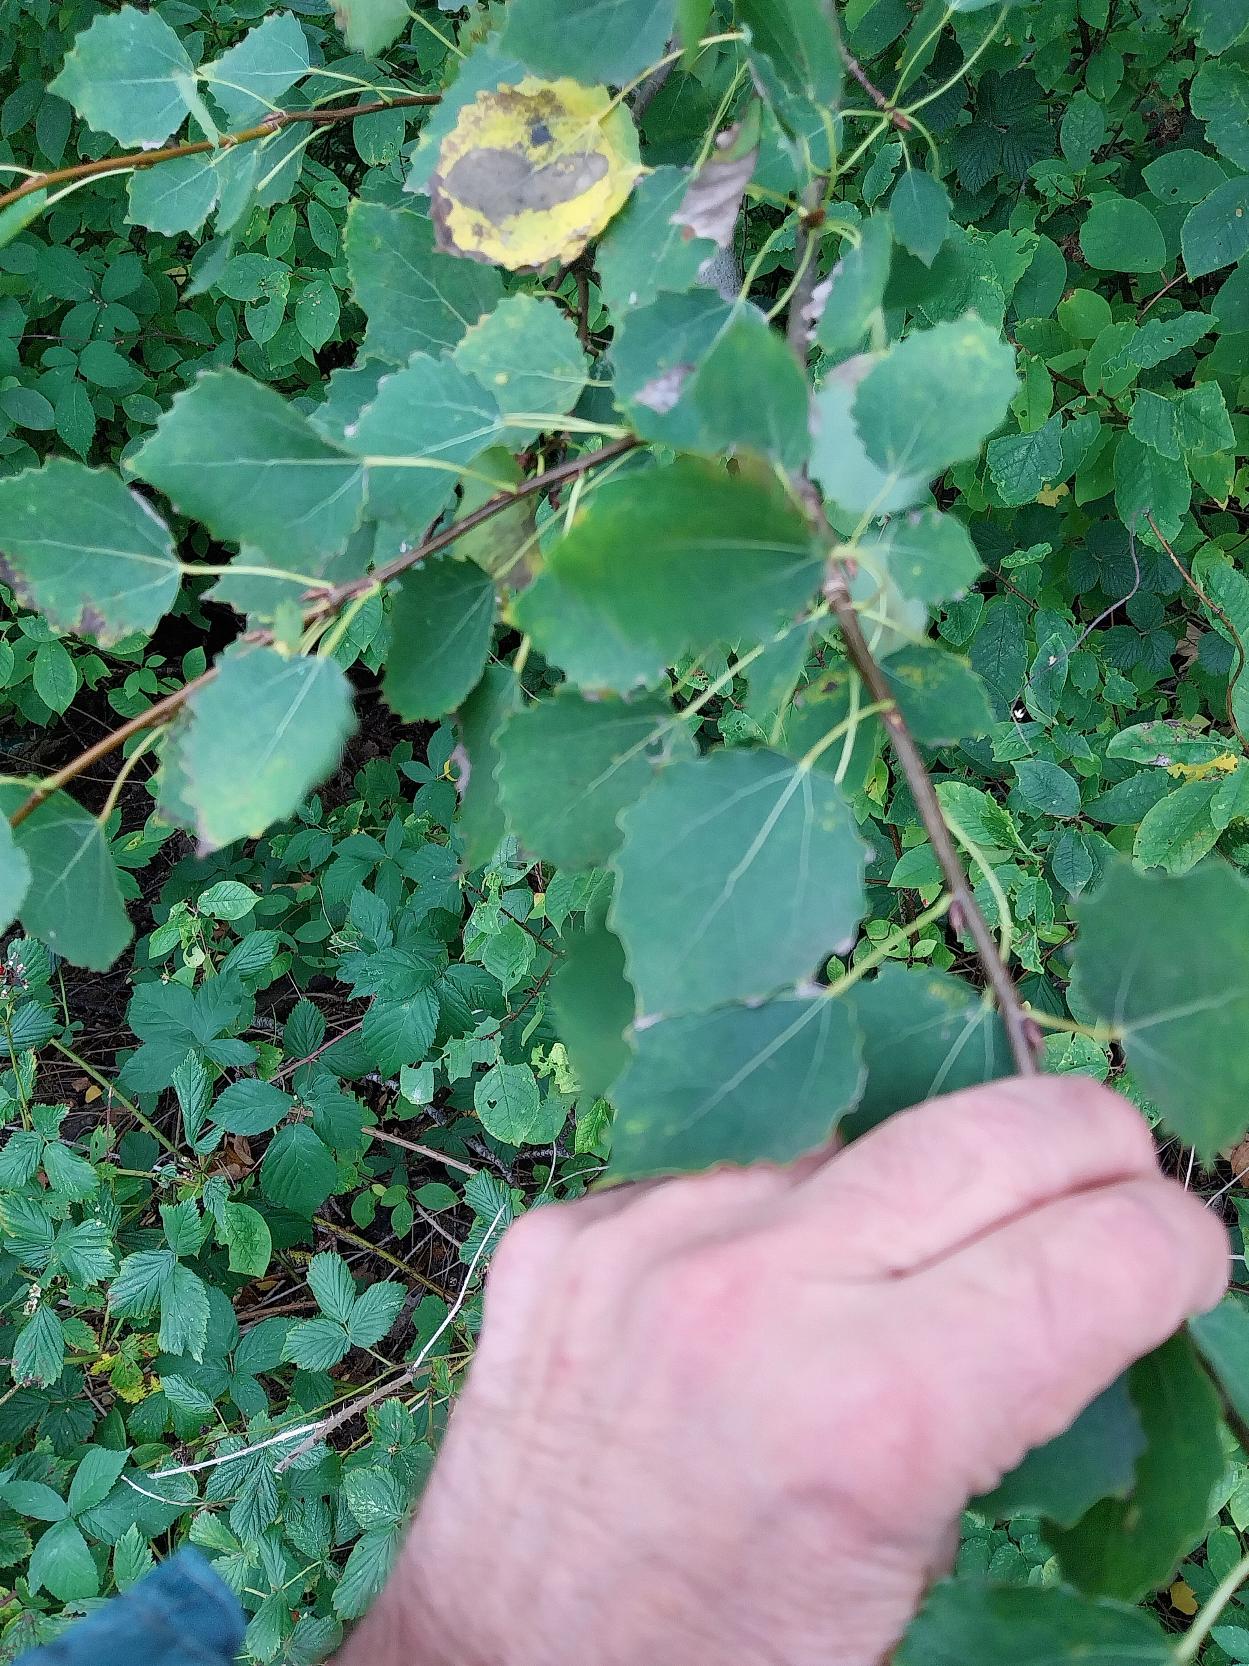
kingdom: Plantae
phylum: Tracheophyta
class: Magnoliopsida
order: Malpighiales
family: Salicaceae
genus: Populus
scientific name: Populus tremula
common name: Bævreasp
